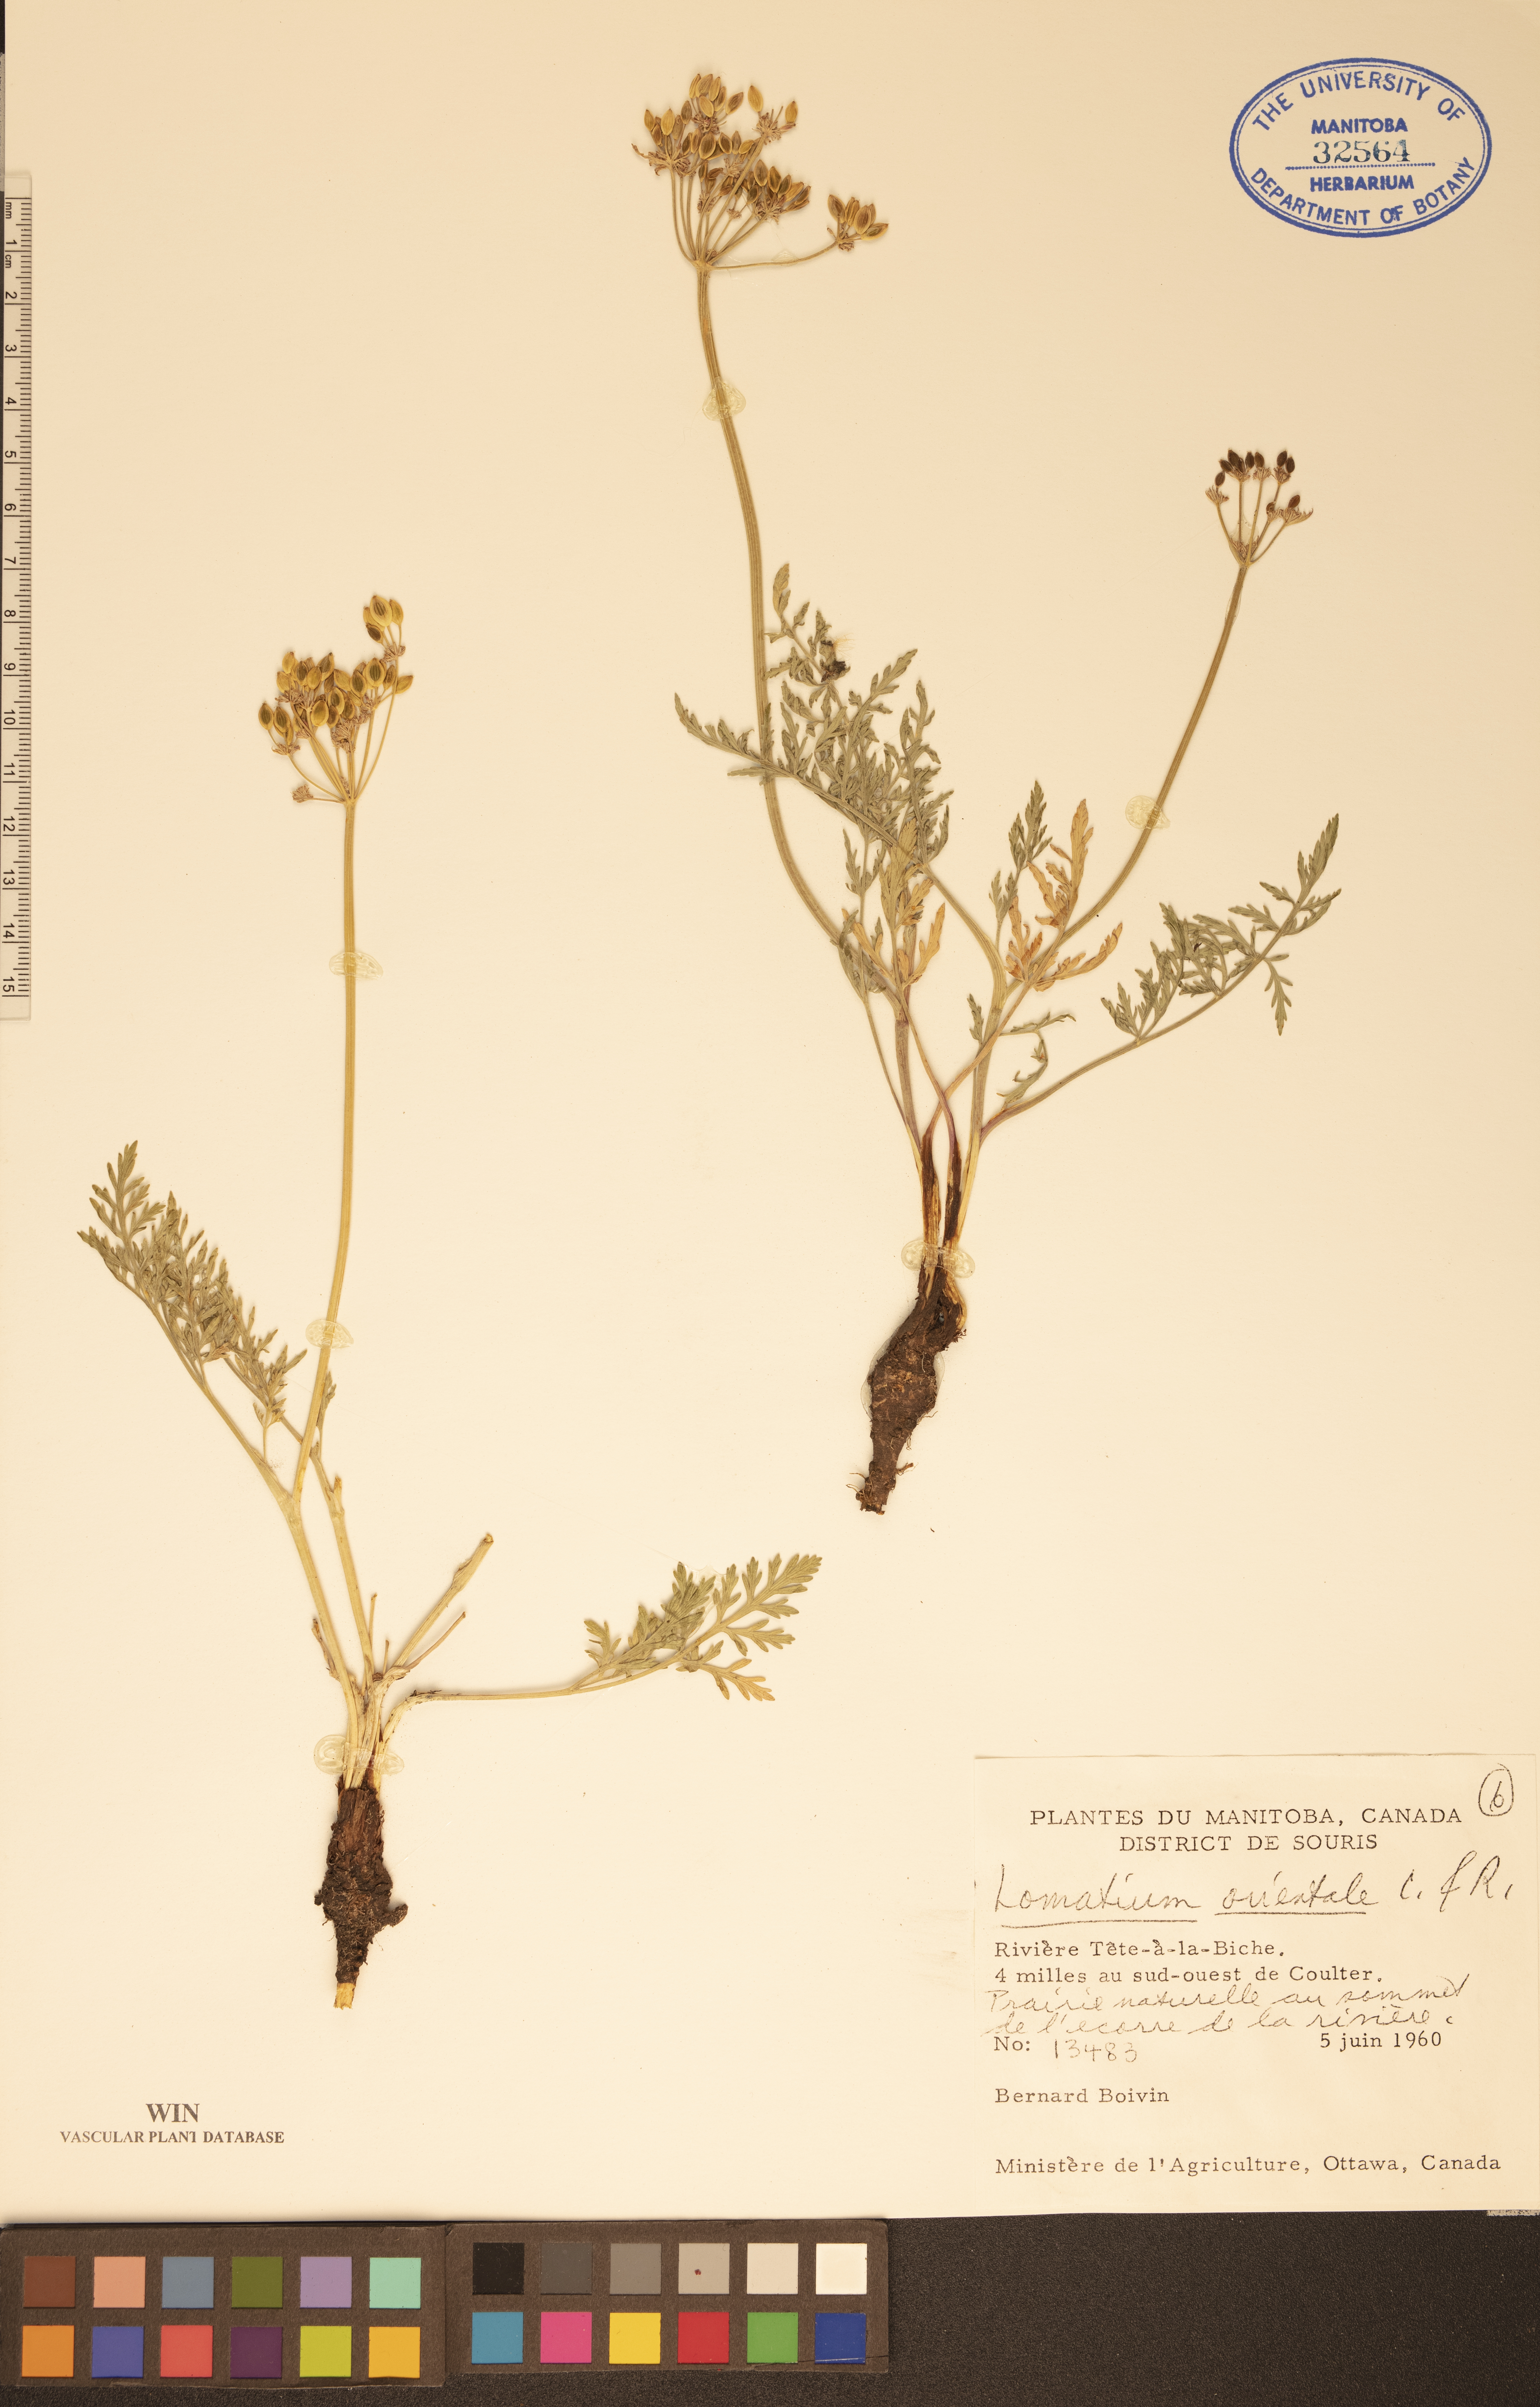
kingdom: Plantae
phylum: Tracheophyta
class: Magnoliopsida
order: Apiales
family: Apiaceae
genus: Lomatium
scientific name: Lomatium orientale
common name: Eastern cous
